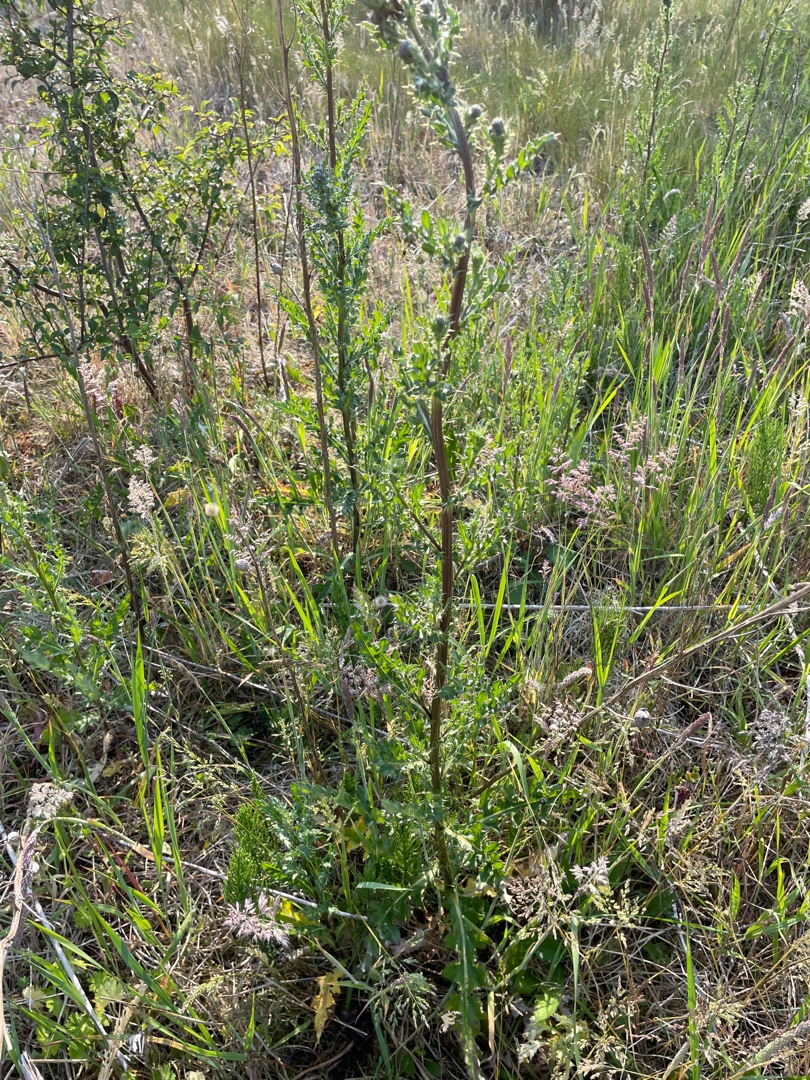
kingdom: Plantae
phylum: Tracheophyta
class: Magnoliopsida
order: Asterales
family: Asteraceae
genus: Cirsium
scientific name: Cirsium arvense
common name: Ager-tidsel
